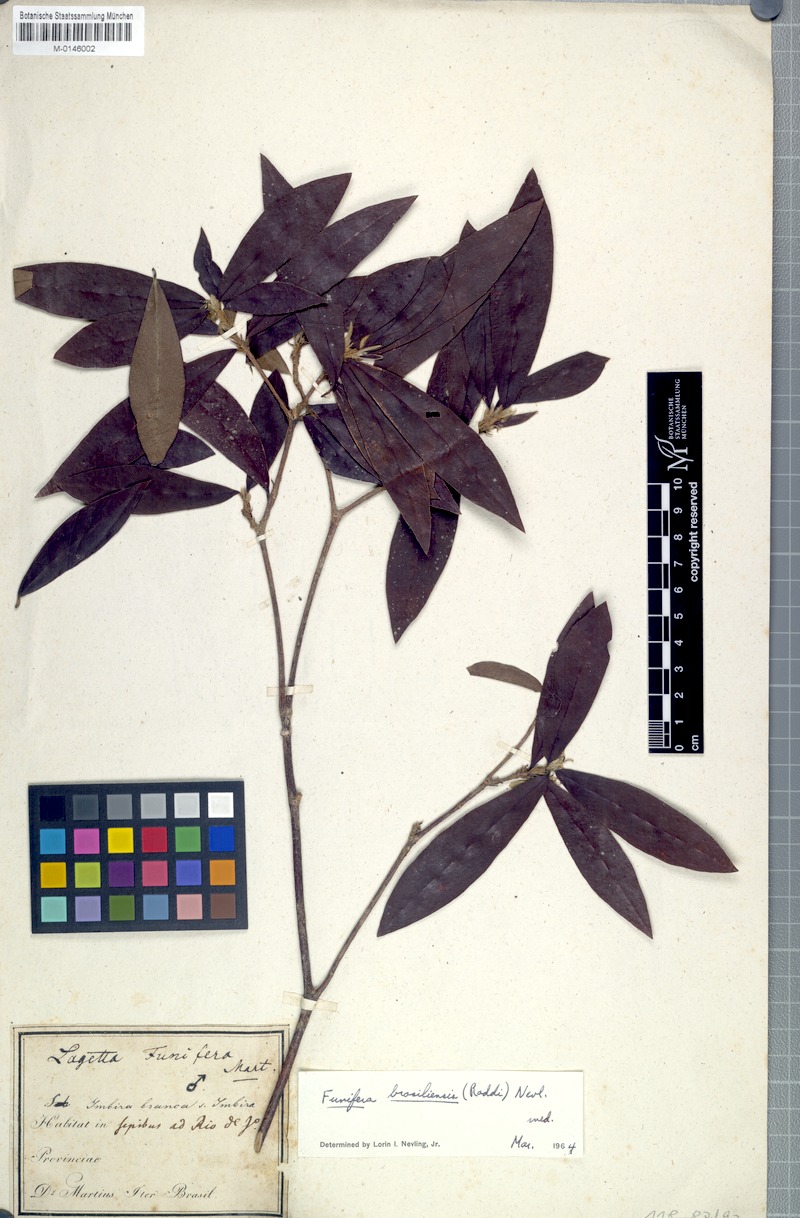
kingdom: Plantae
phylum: Tracheophyta
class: Magnoliopsida
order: Malvales
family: Thymelaeaceae
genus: Funifera
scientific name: Funifera brasiliensis
